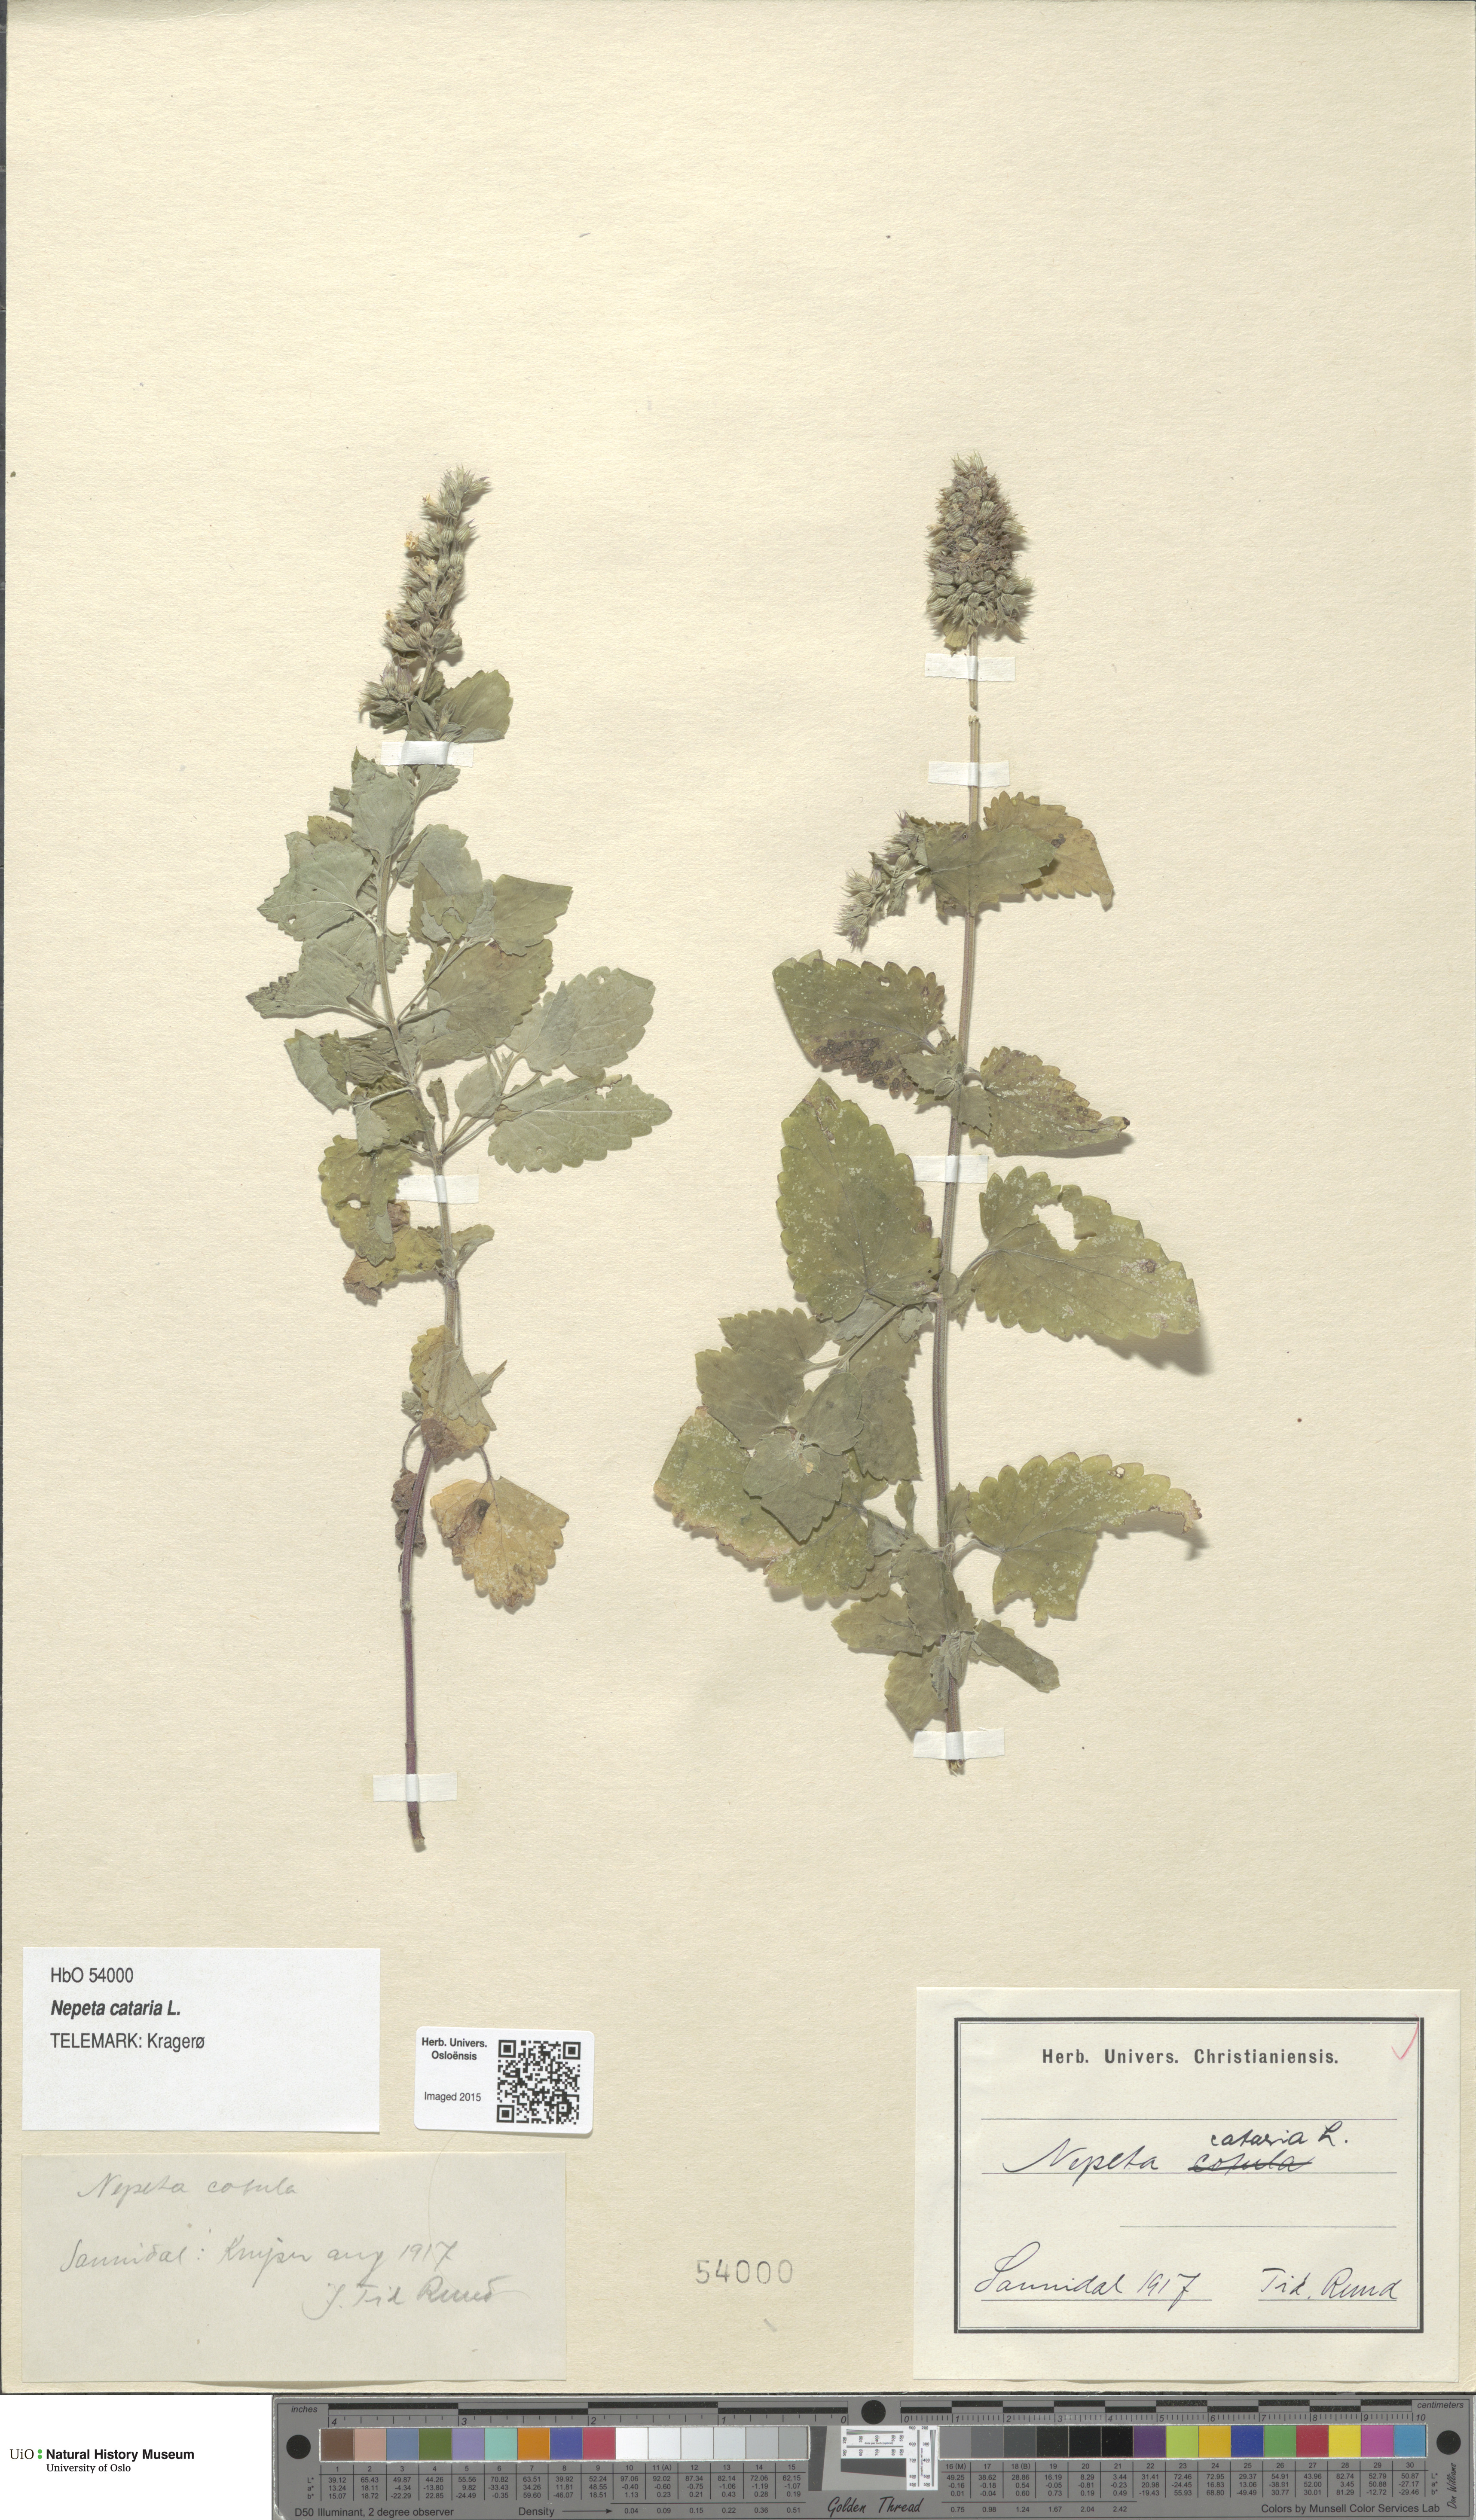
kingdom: Plantae
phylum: Tracheophyta
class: Magnoliopsida
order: Lamiales
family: Lamiaceae
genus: Nepeta
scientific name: Nepeta cataria
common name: Catnip
